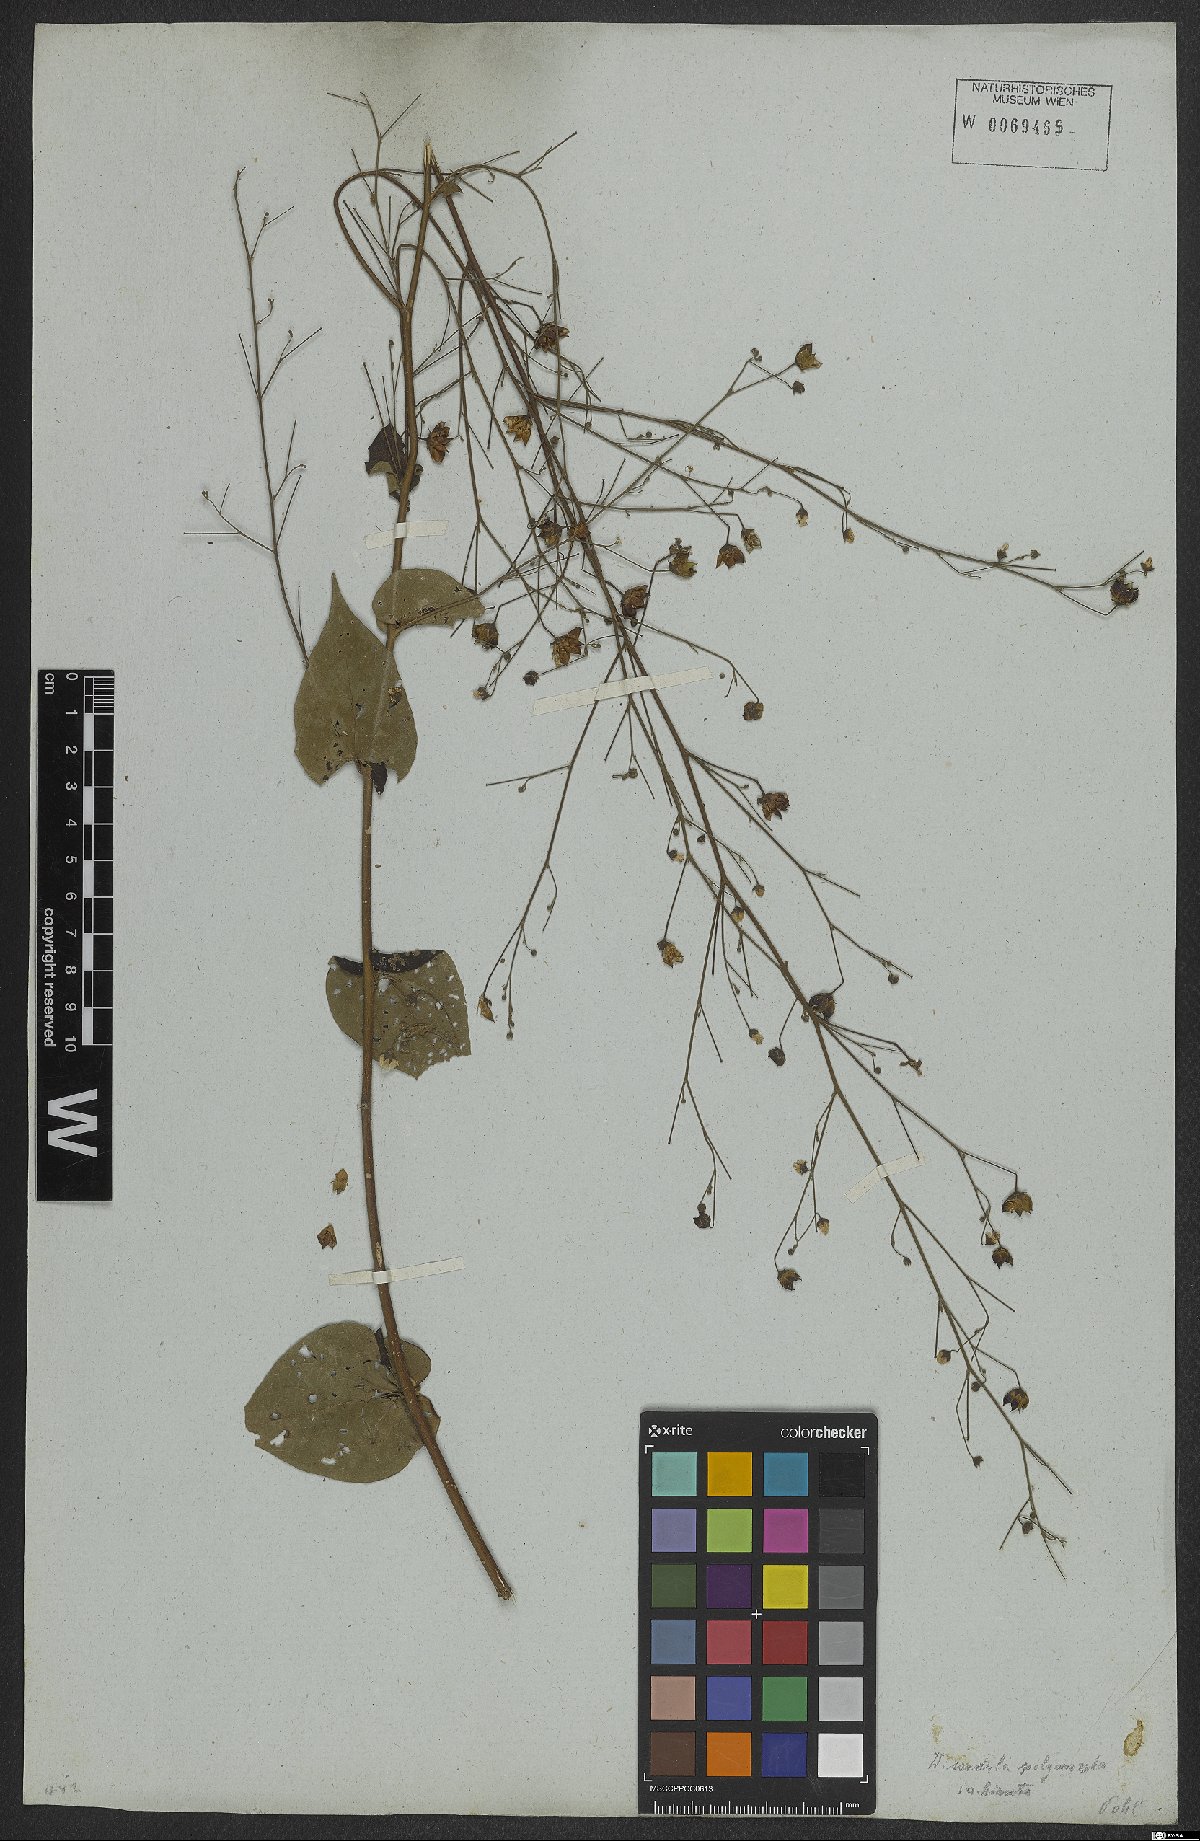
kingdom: Plantae
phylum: Tracheophyta
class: Magnoliopsida
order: Malvales
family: Malvaceae
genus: Wissadula
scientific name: Wissadula amplissima
